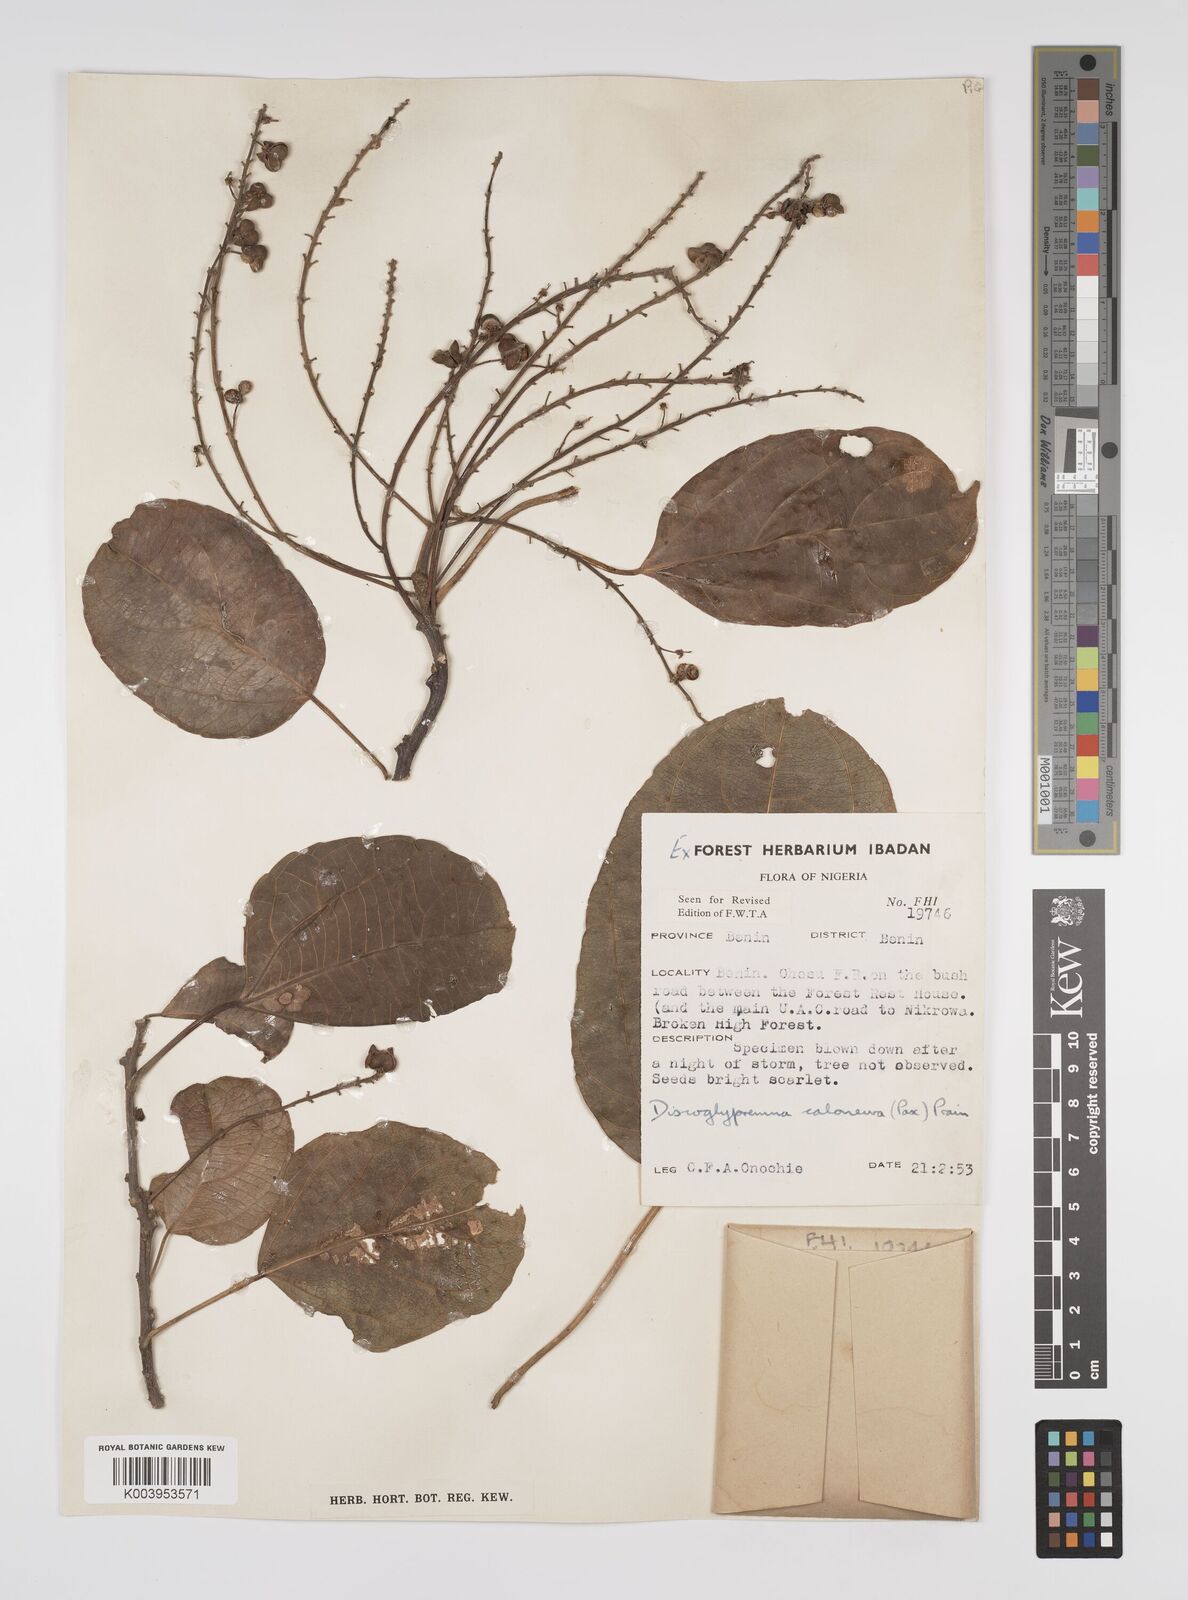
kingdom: Plantae
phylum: Tracheophyta
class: Magnoliopsida
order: Malpighiales
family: Euphorbiaceae
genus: Discoglypremna
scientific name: Discoglypremna caloneura
